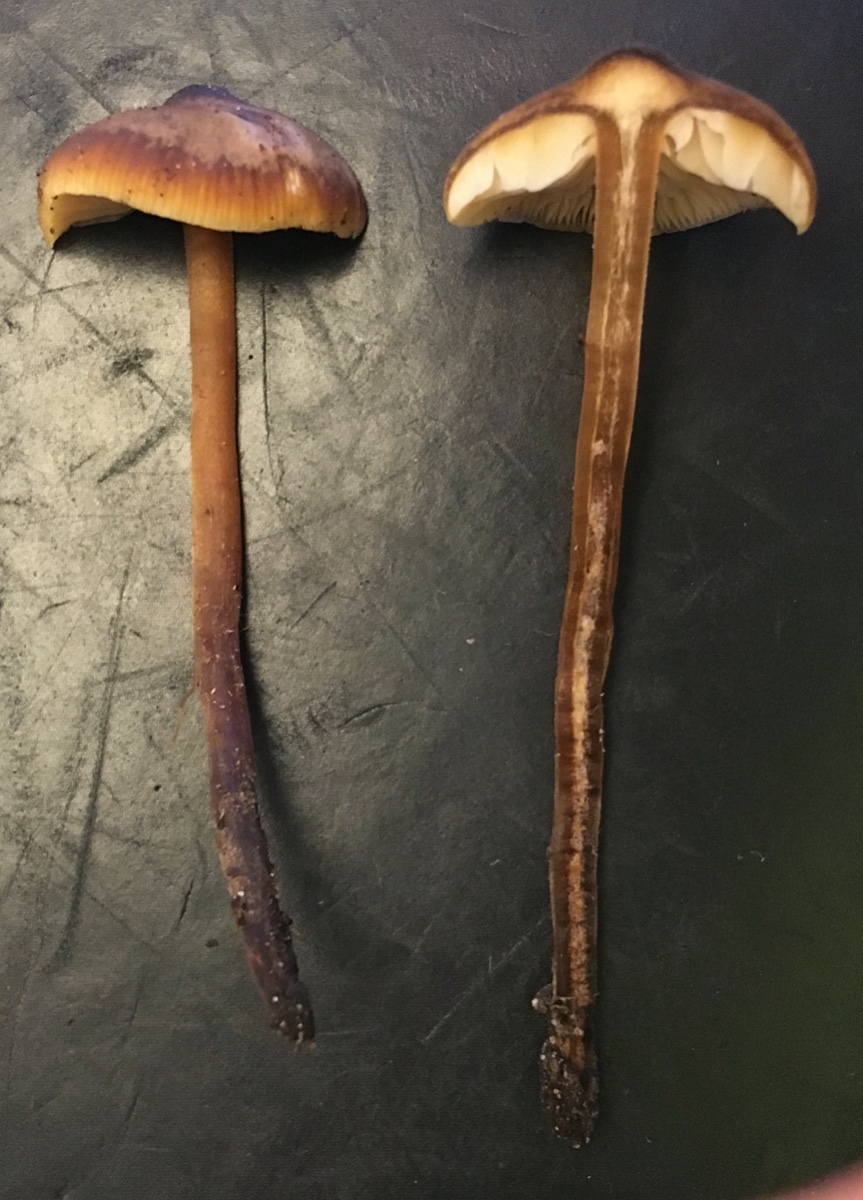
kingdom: Fungi
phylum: Basidiomycota
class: Agaricomycetes
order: Agaricales
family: Macrocystidiaceae
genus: Macrocystidia
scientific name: Macrocystidia cucumis
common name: agurkehat
